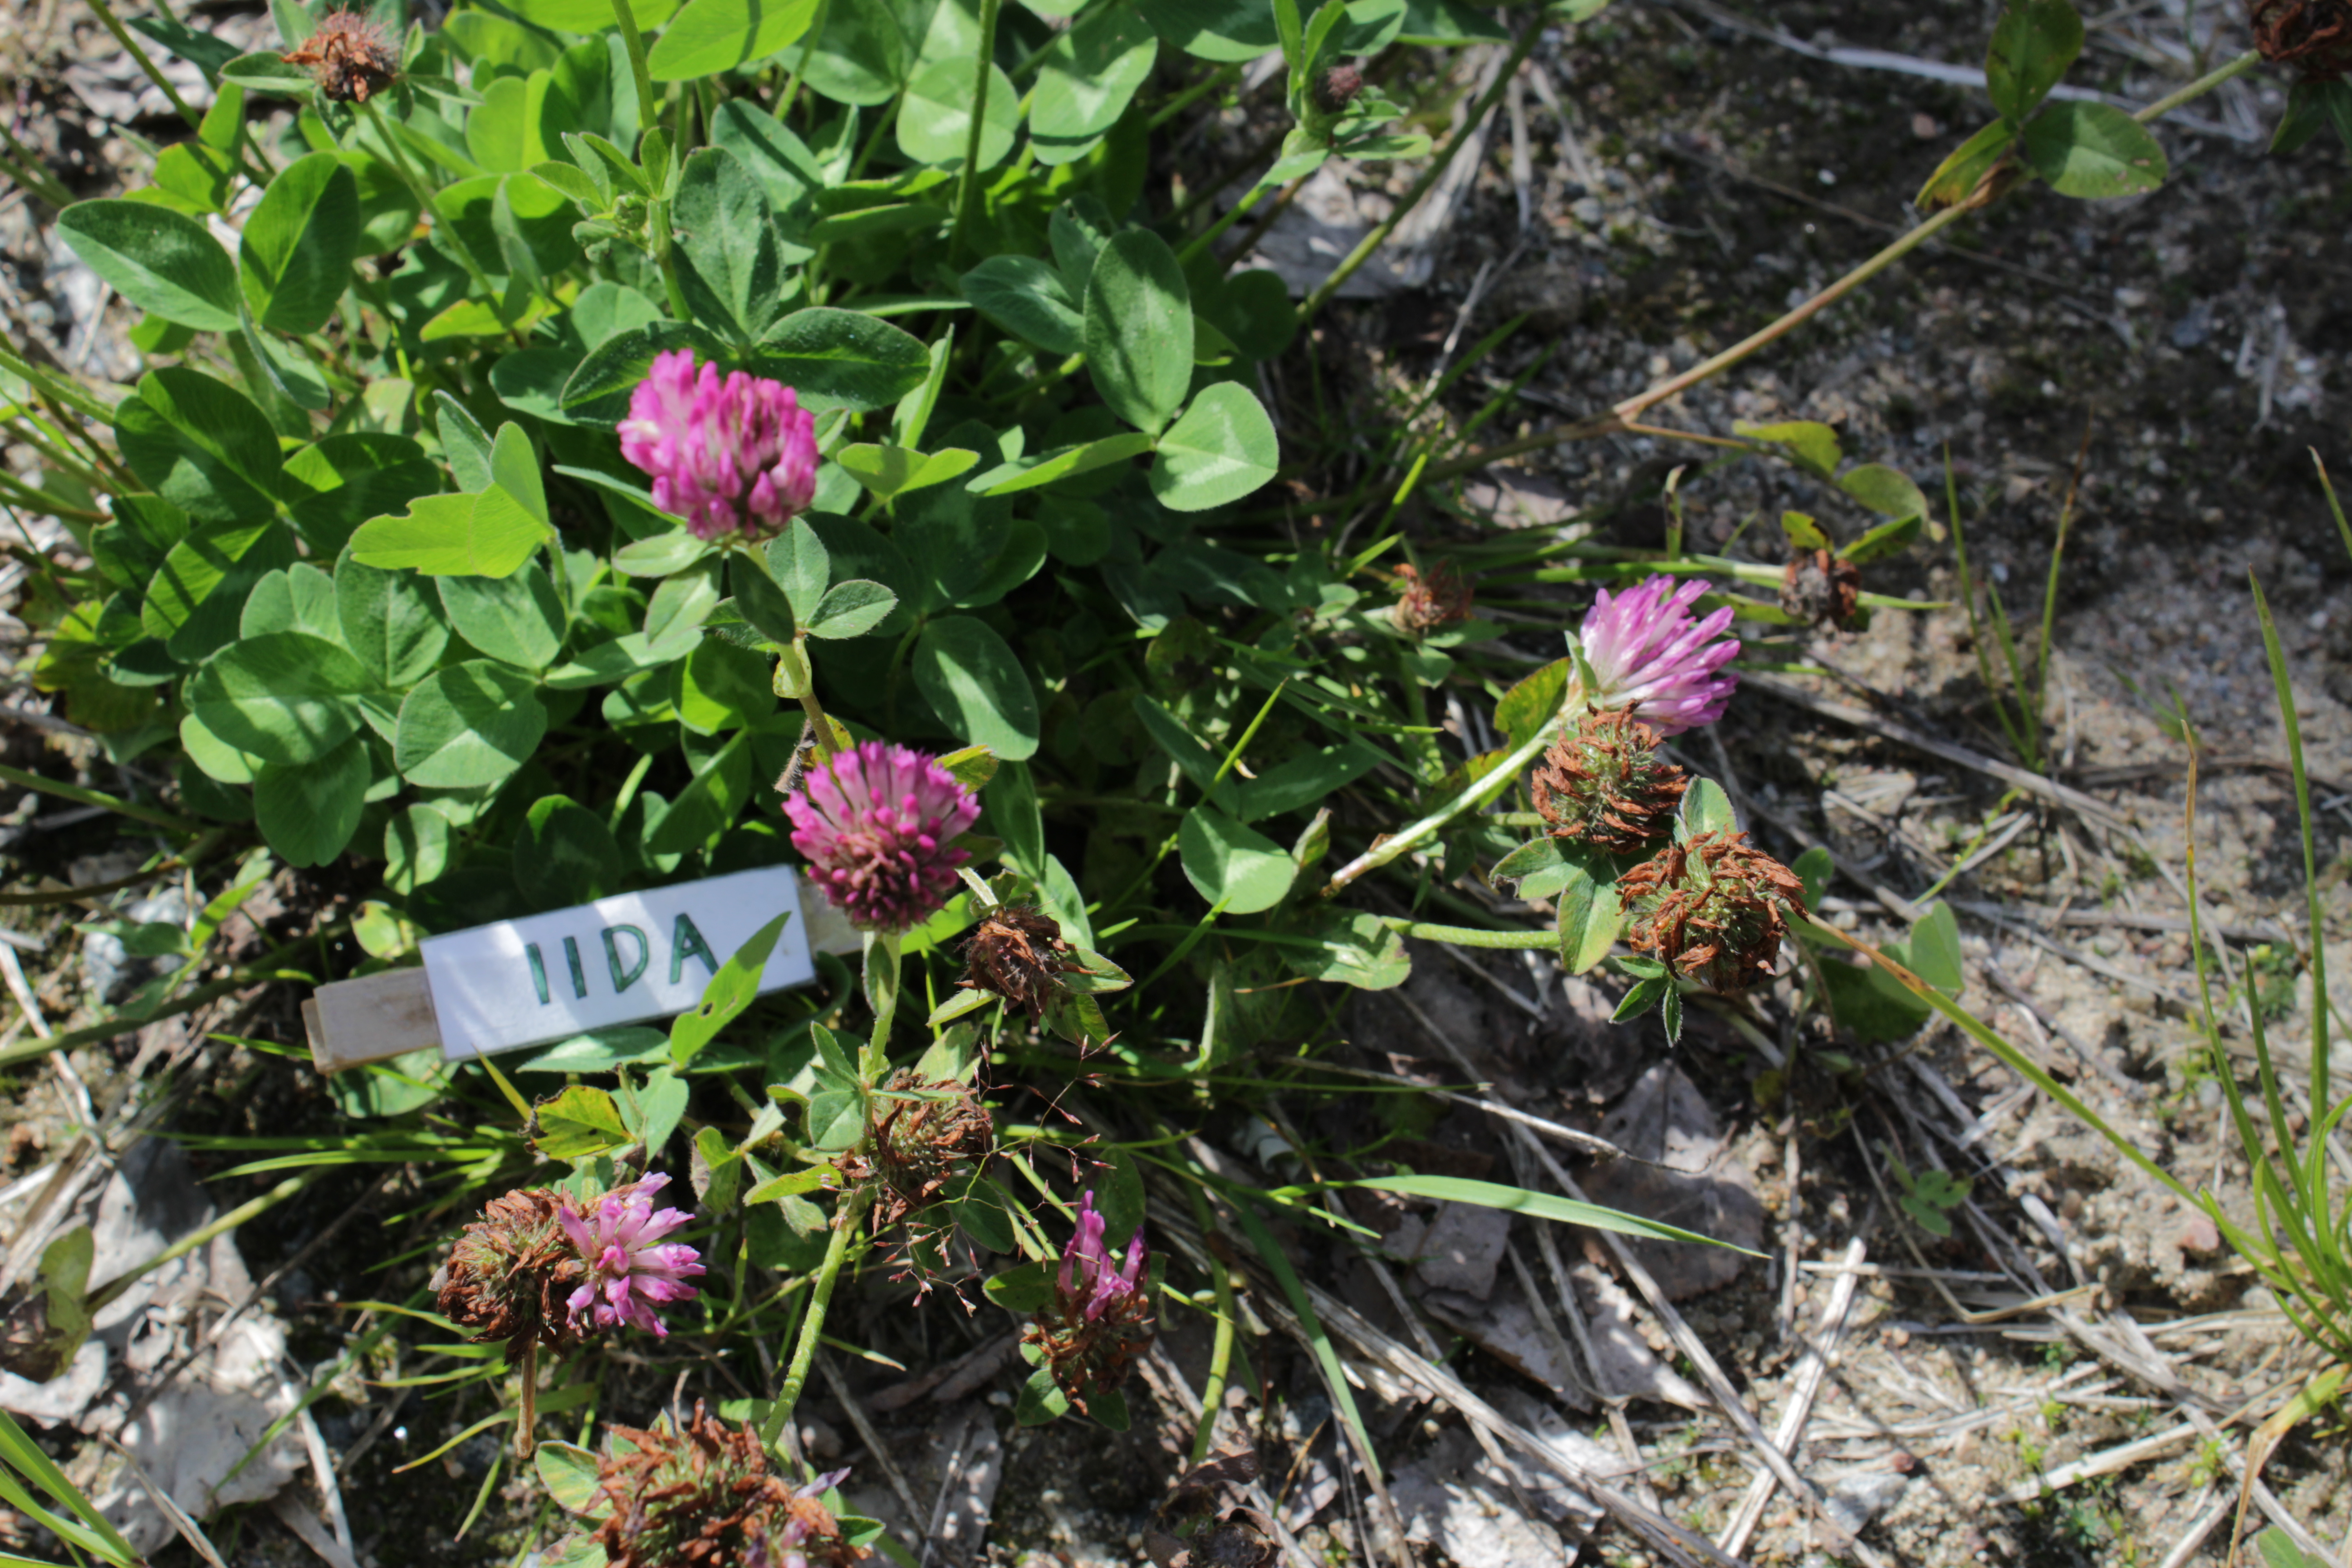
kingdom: Plantae
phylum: Tracheophyta
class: Magnoliopsida
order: Fabales
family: Fabaceae
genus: Trifolium
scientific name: Trifolium pratense
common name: Red clover
